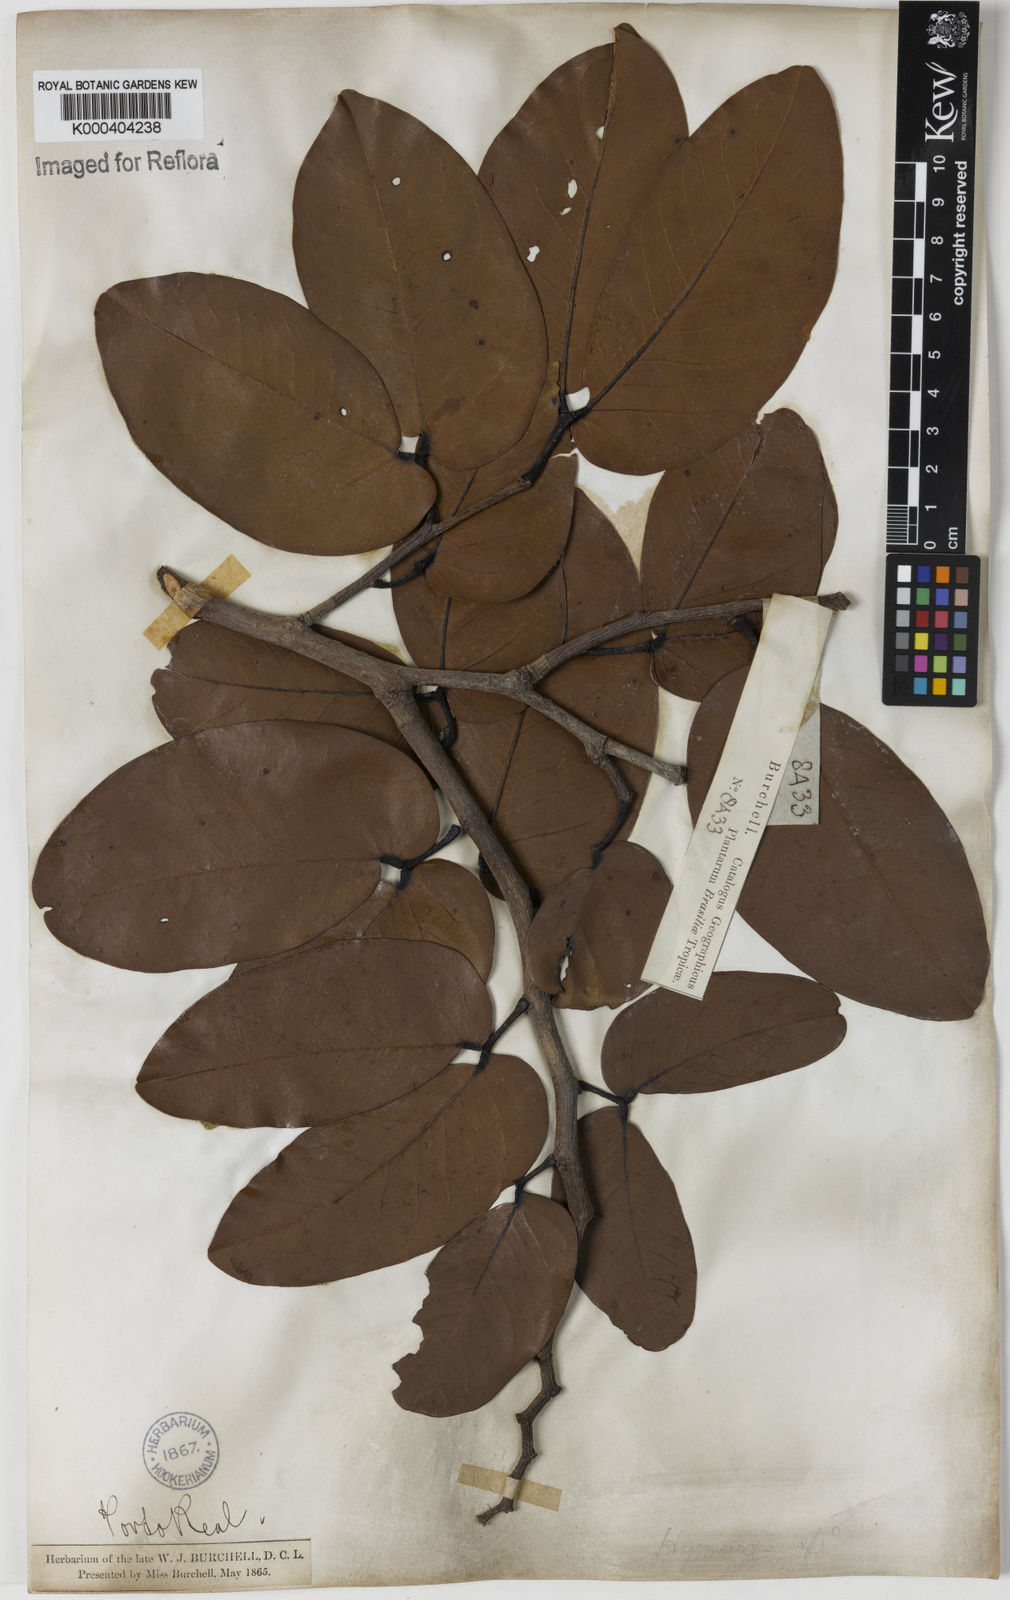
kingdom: Plantae
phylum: Tracheophyta
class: Magnoliopsida
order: Fabales
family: Fabaceae
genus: Hymenaea
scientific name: Hymenaea stigonocarpa
